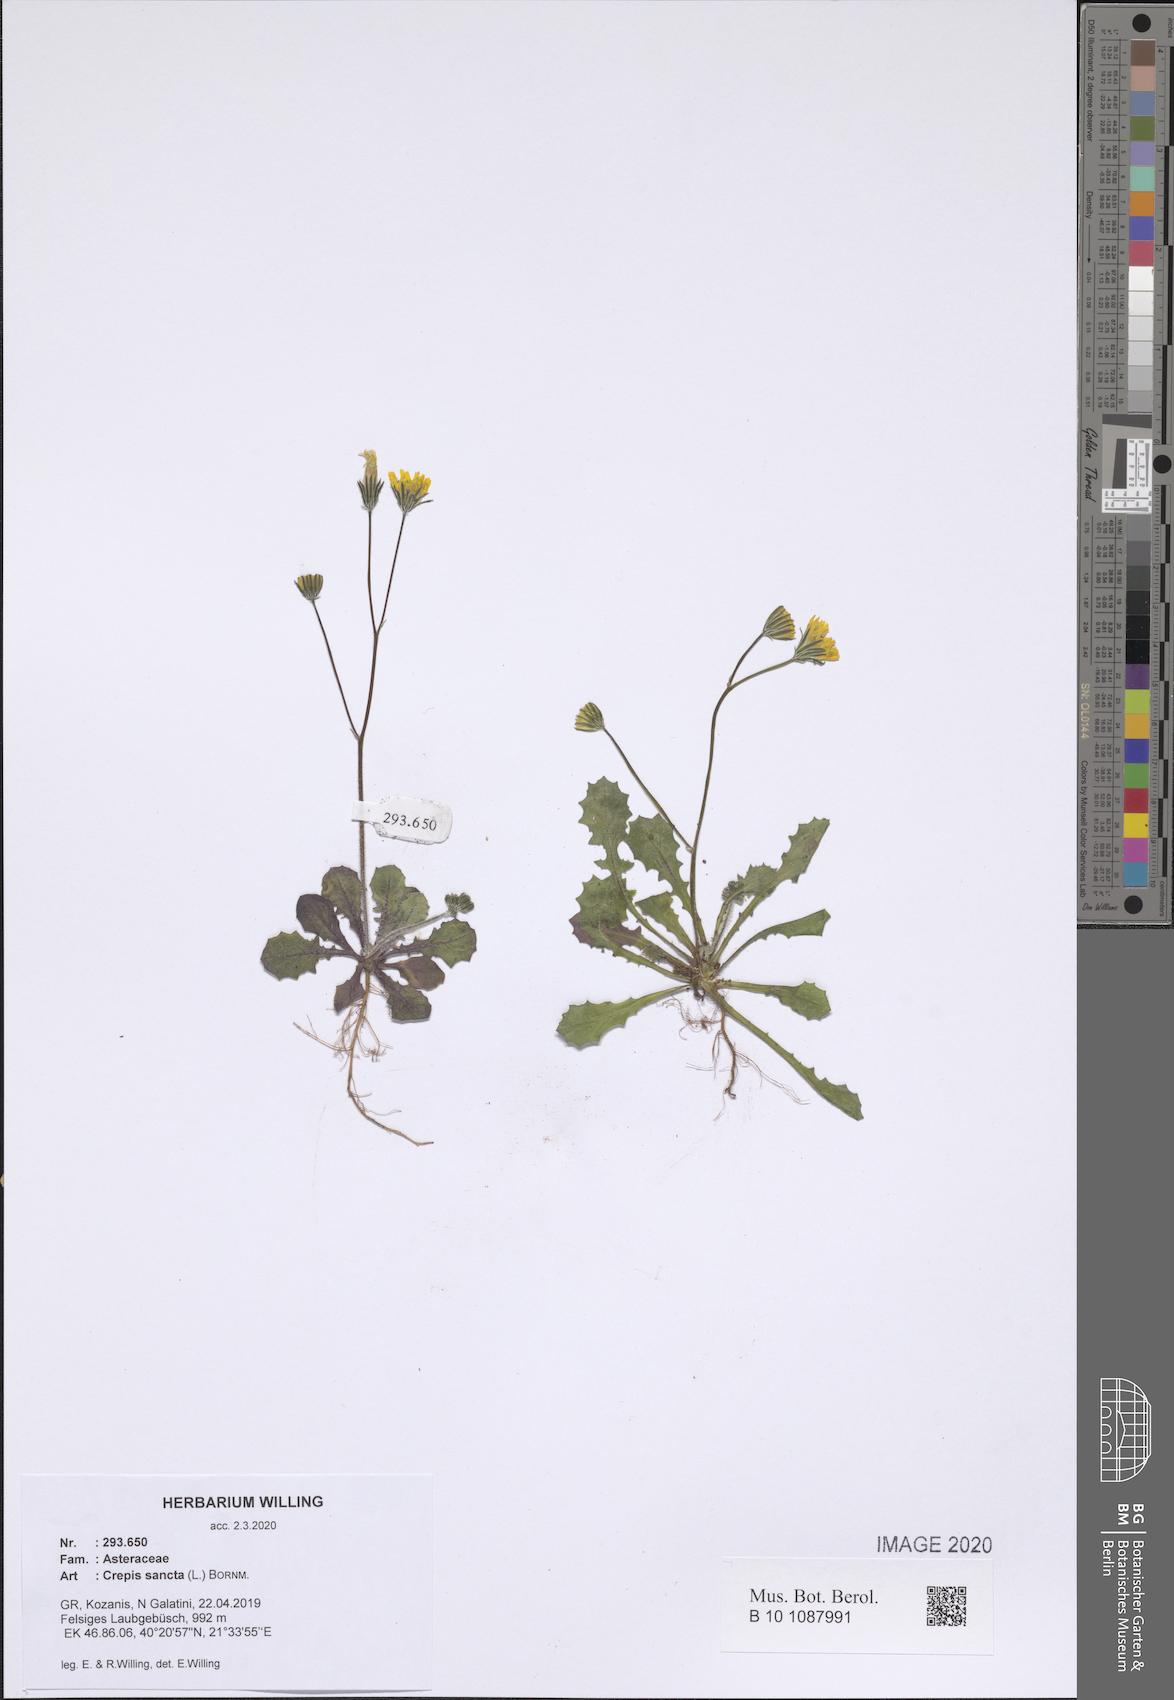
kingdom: Plantae
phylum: Tracheophyta
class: Magnoliopsida
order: Asterales
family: Asteraceae
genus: Crepis
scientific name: Crepis sancta
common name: Hawk's-beard
